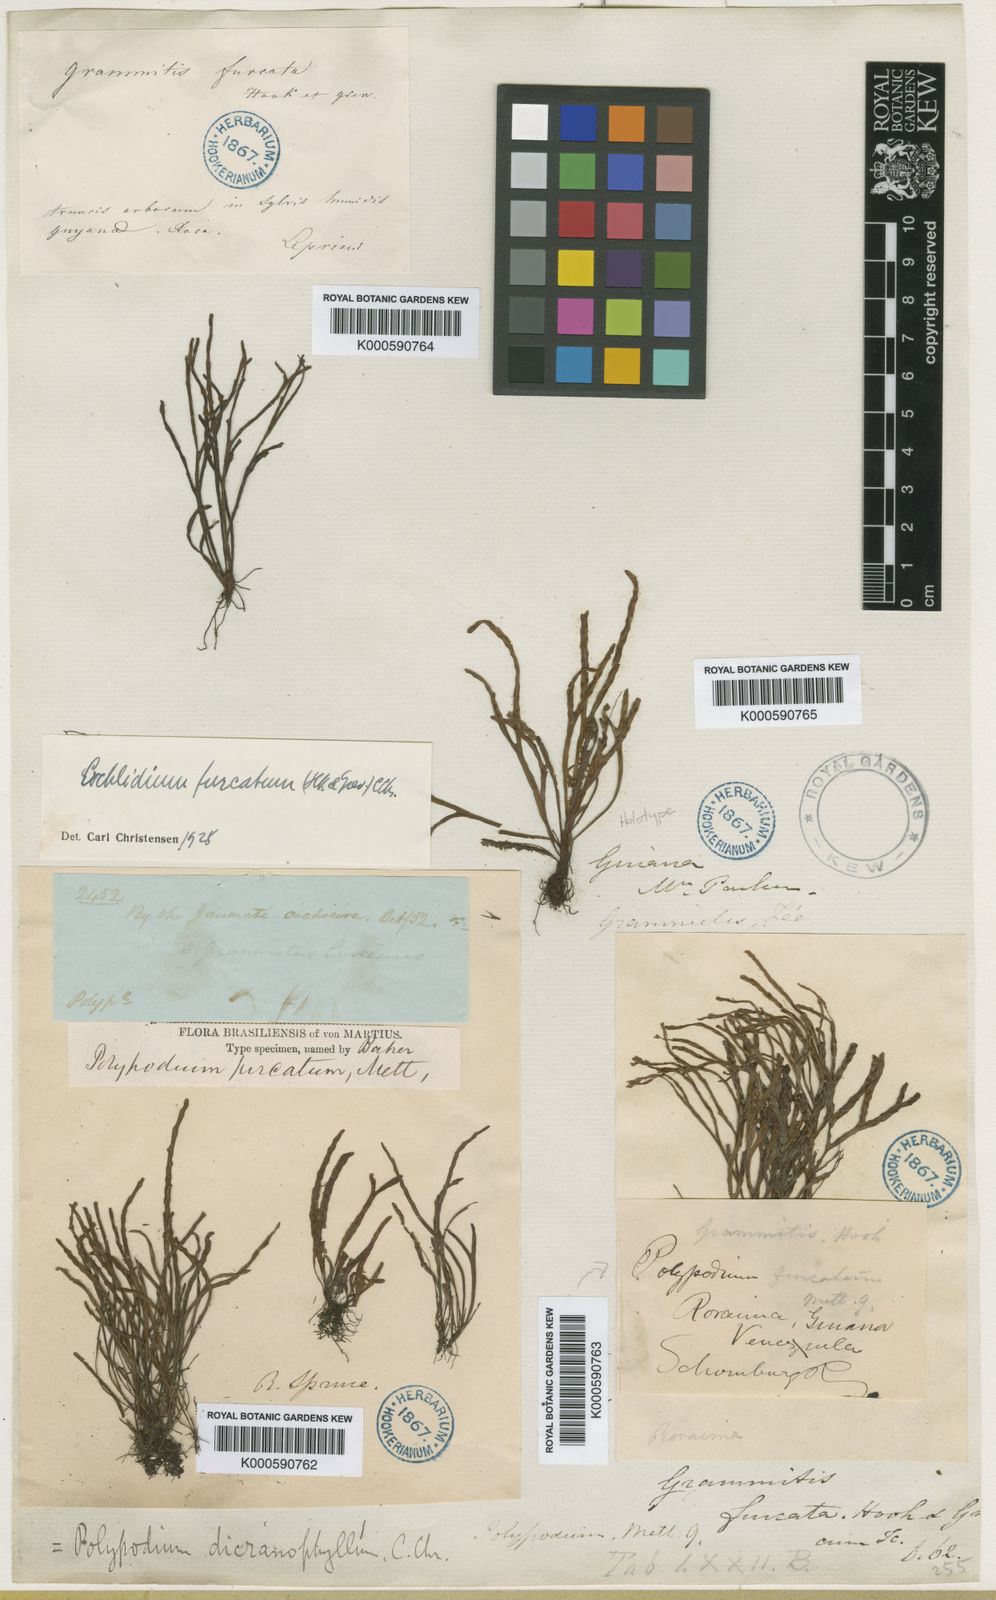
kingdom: Plantae
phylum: Tracheophyta
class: Polypodiopsida
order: Polypodiales
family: Polypodiaceae
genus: Cochlidium
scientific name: Cochlidium furcatum
